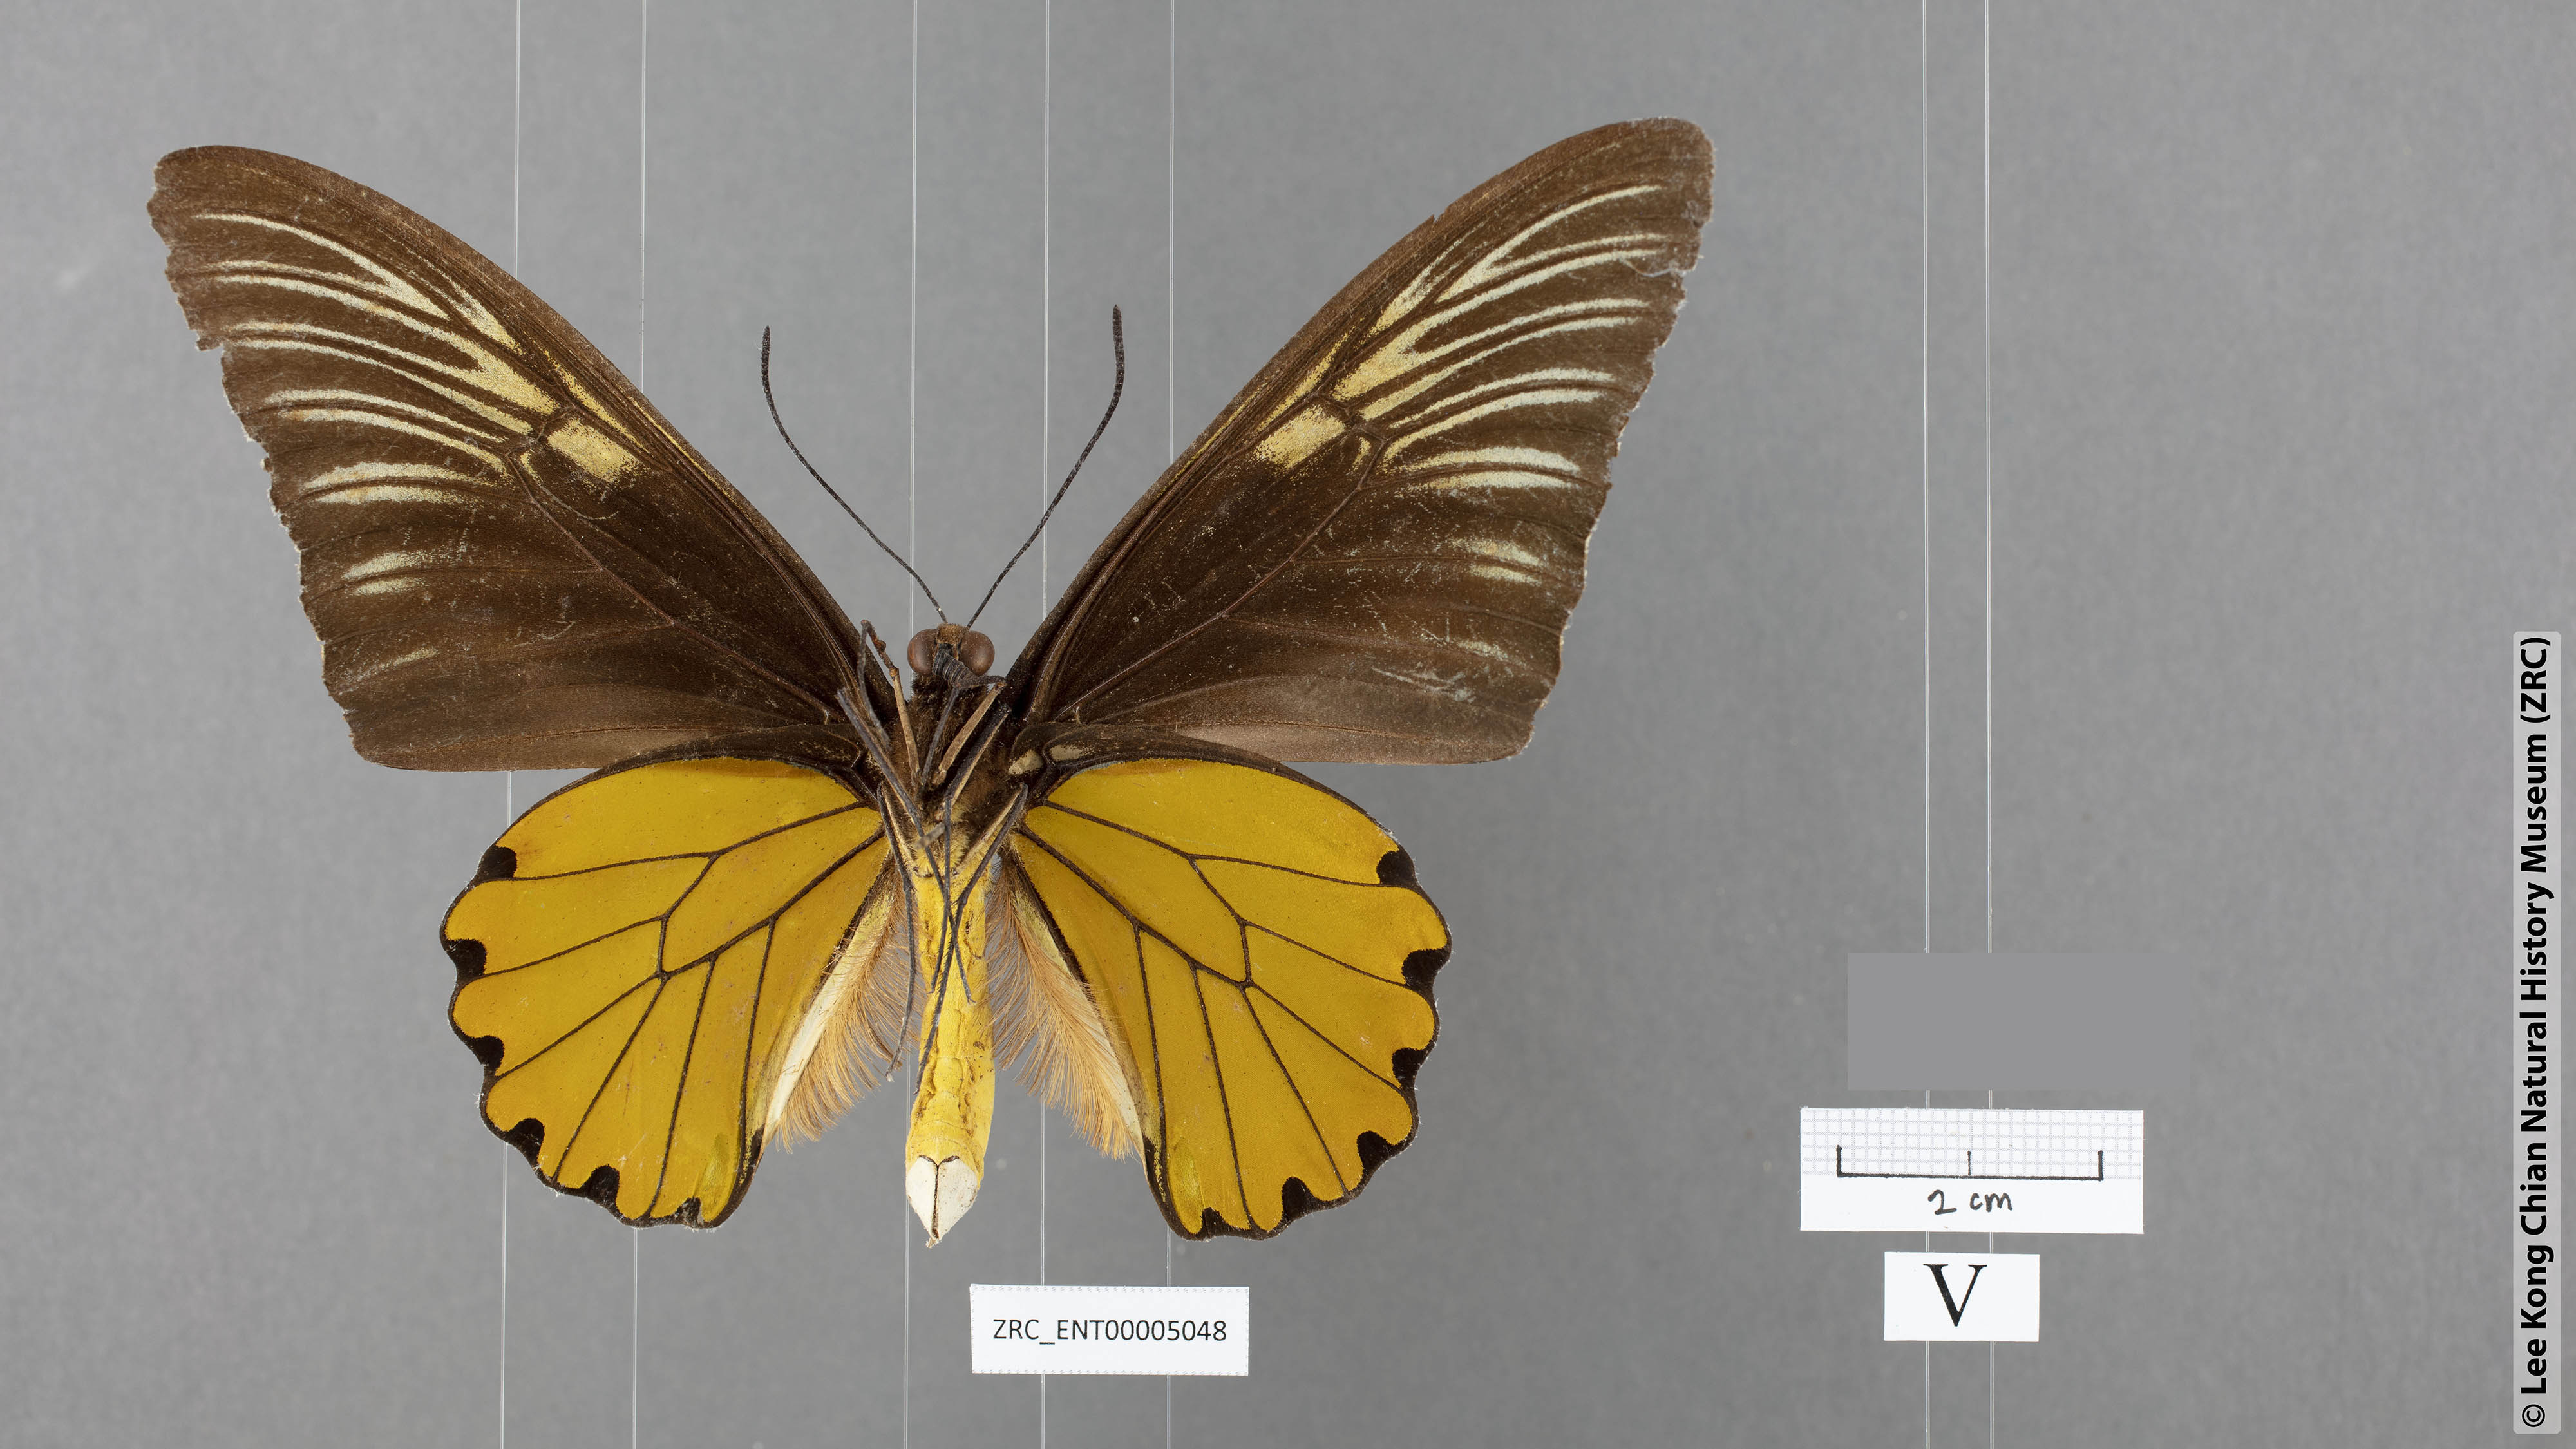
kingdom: Animalia
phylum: Arthropoda
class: Insecta
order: Lepidoptera
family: Papilionidae
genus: Troides
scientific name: Troides amphyrus
